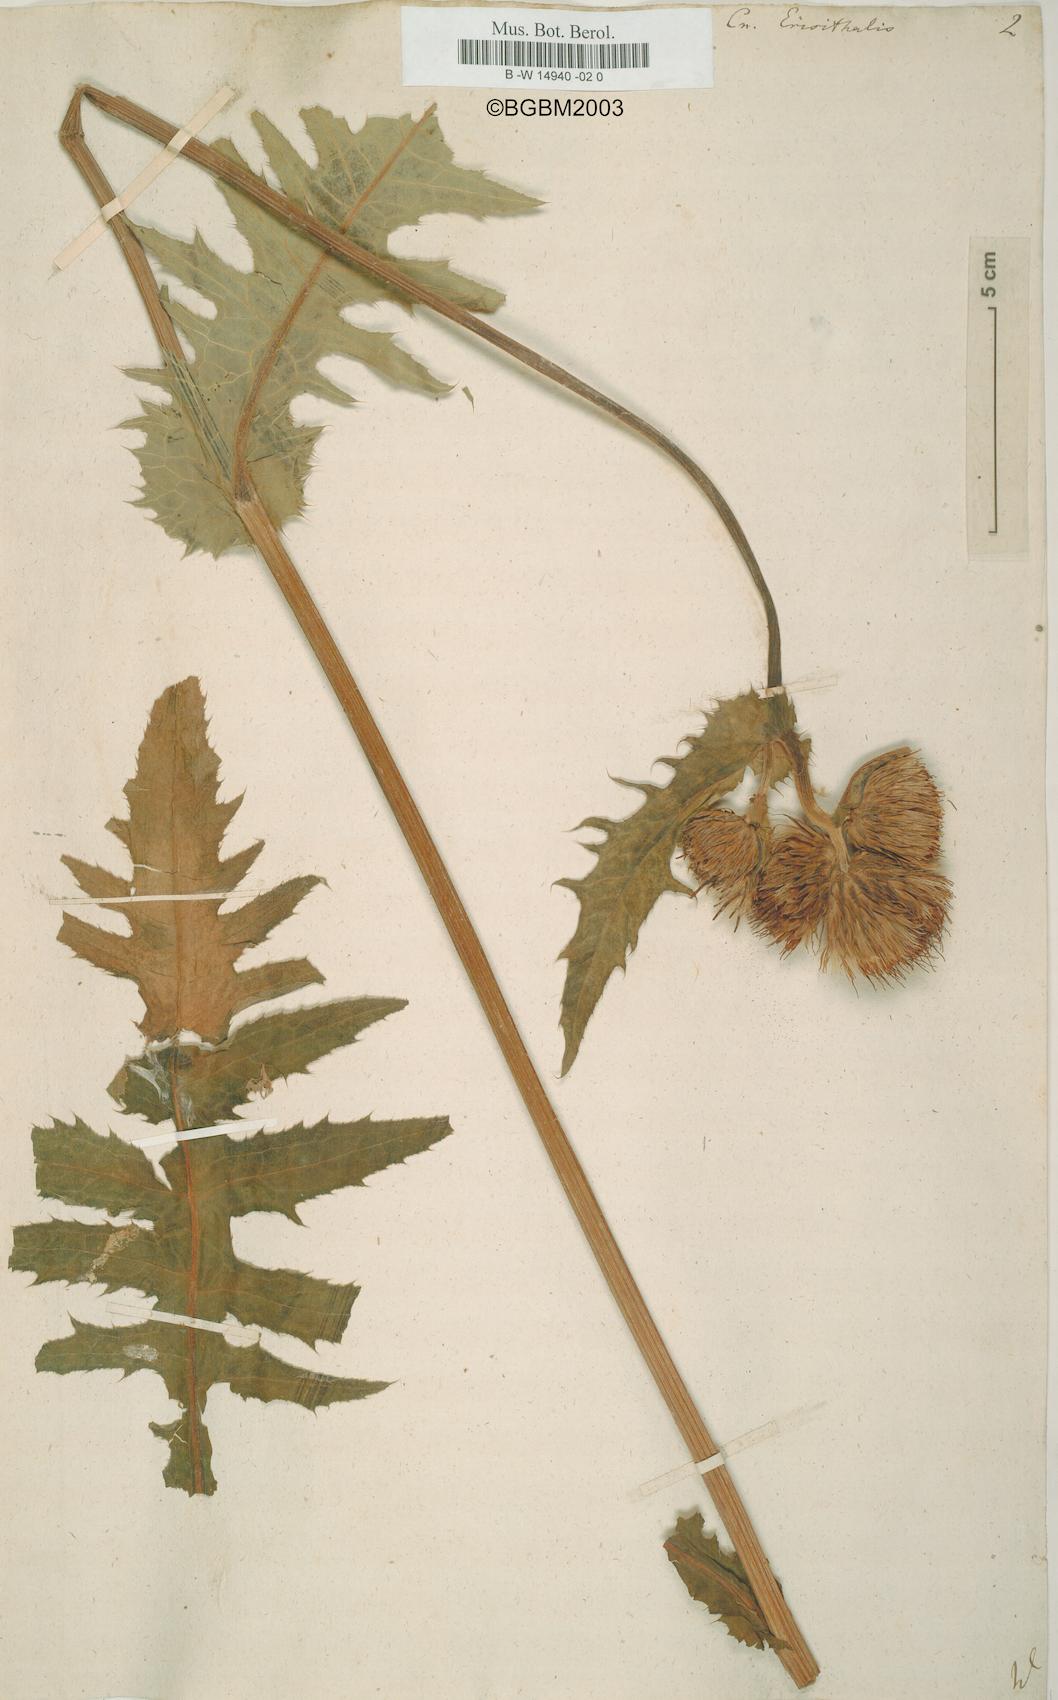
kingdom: Plantae
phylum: Tracheophyta
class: Magnoliopsida
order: Asterales
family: Asteraceae
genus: Cirsium
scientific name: Cirsium erisithales
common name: Yellow thistle
